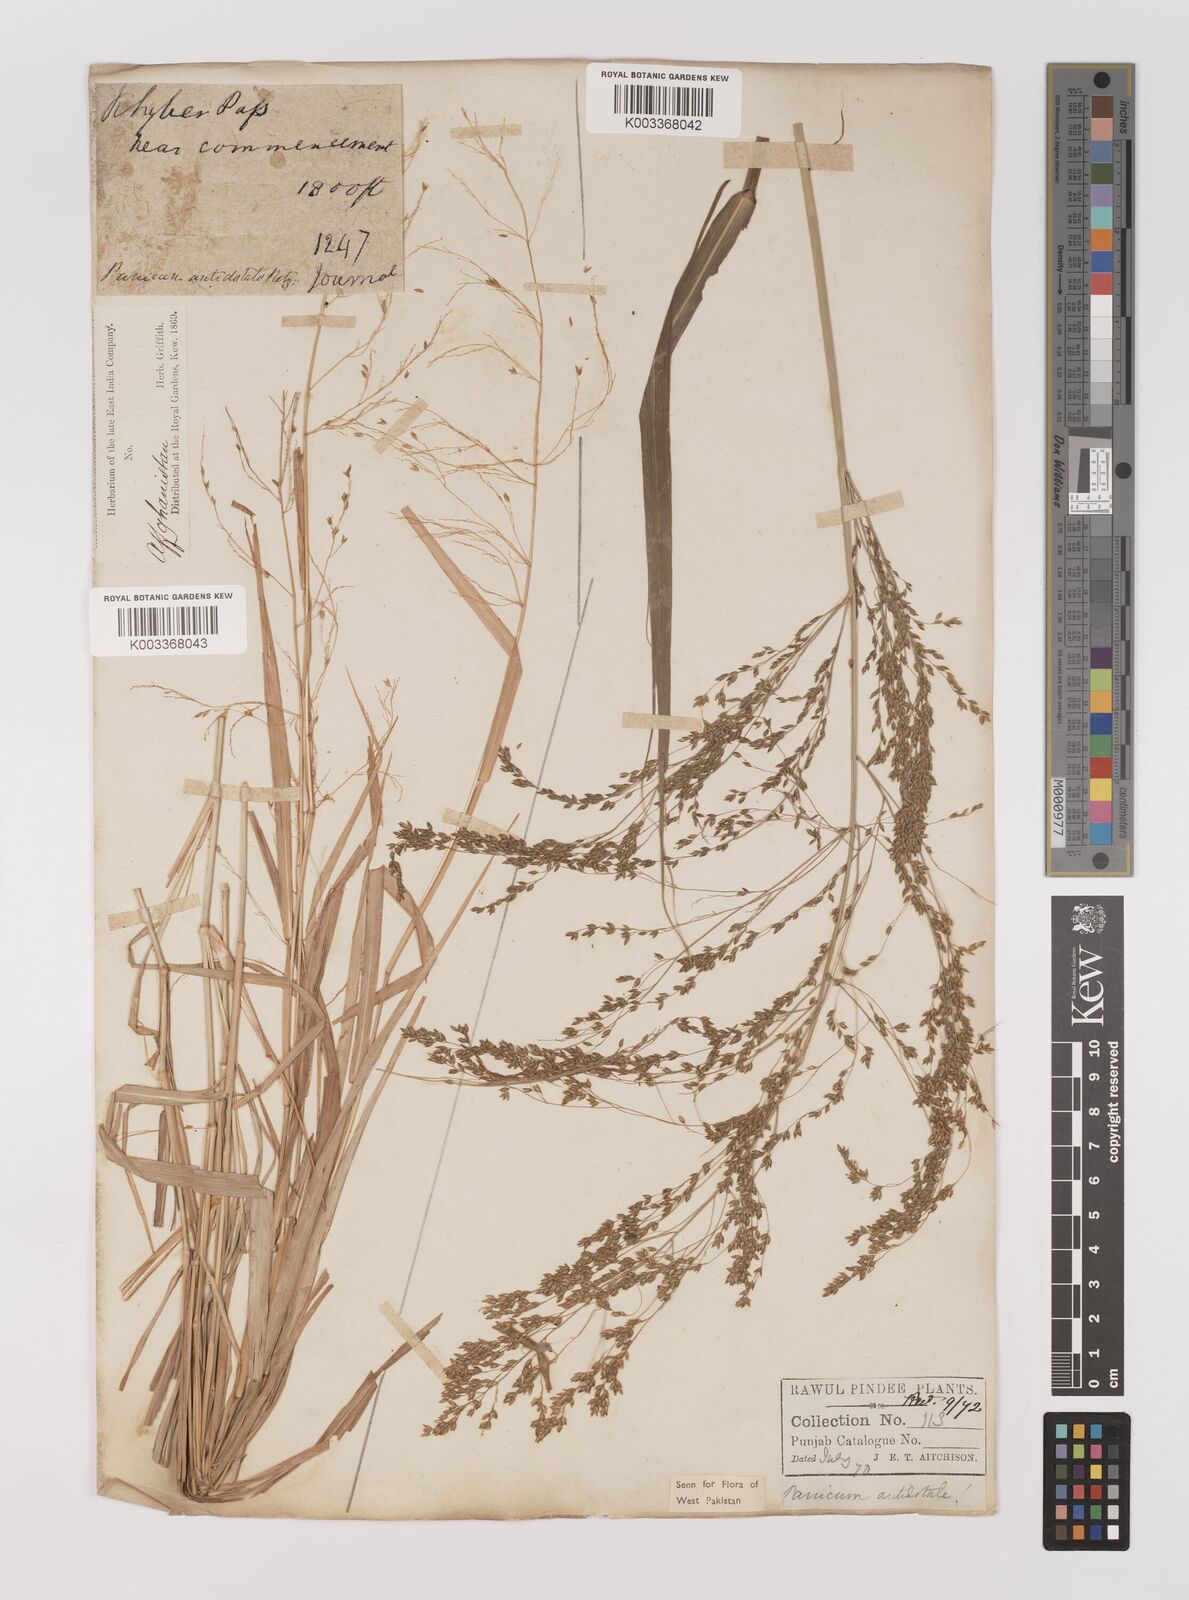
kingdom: Plantae
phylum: Tracheophyta
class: Liliopsida
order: Poales
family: Poaceae
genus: Panicum
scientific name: Panicum antidotale
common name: Blue panicum
